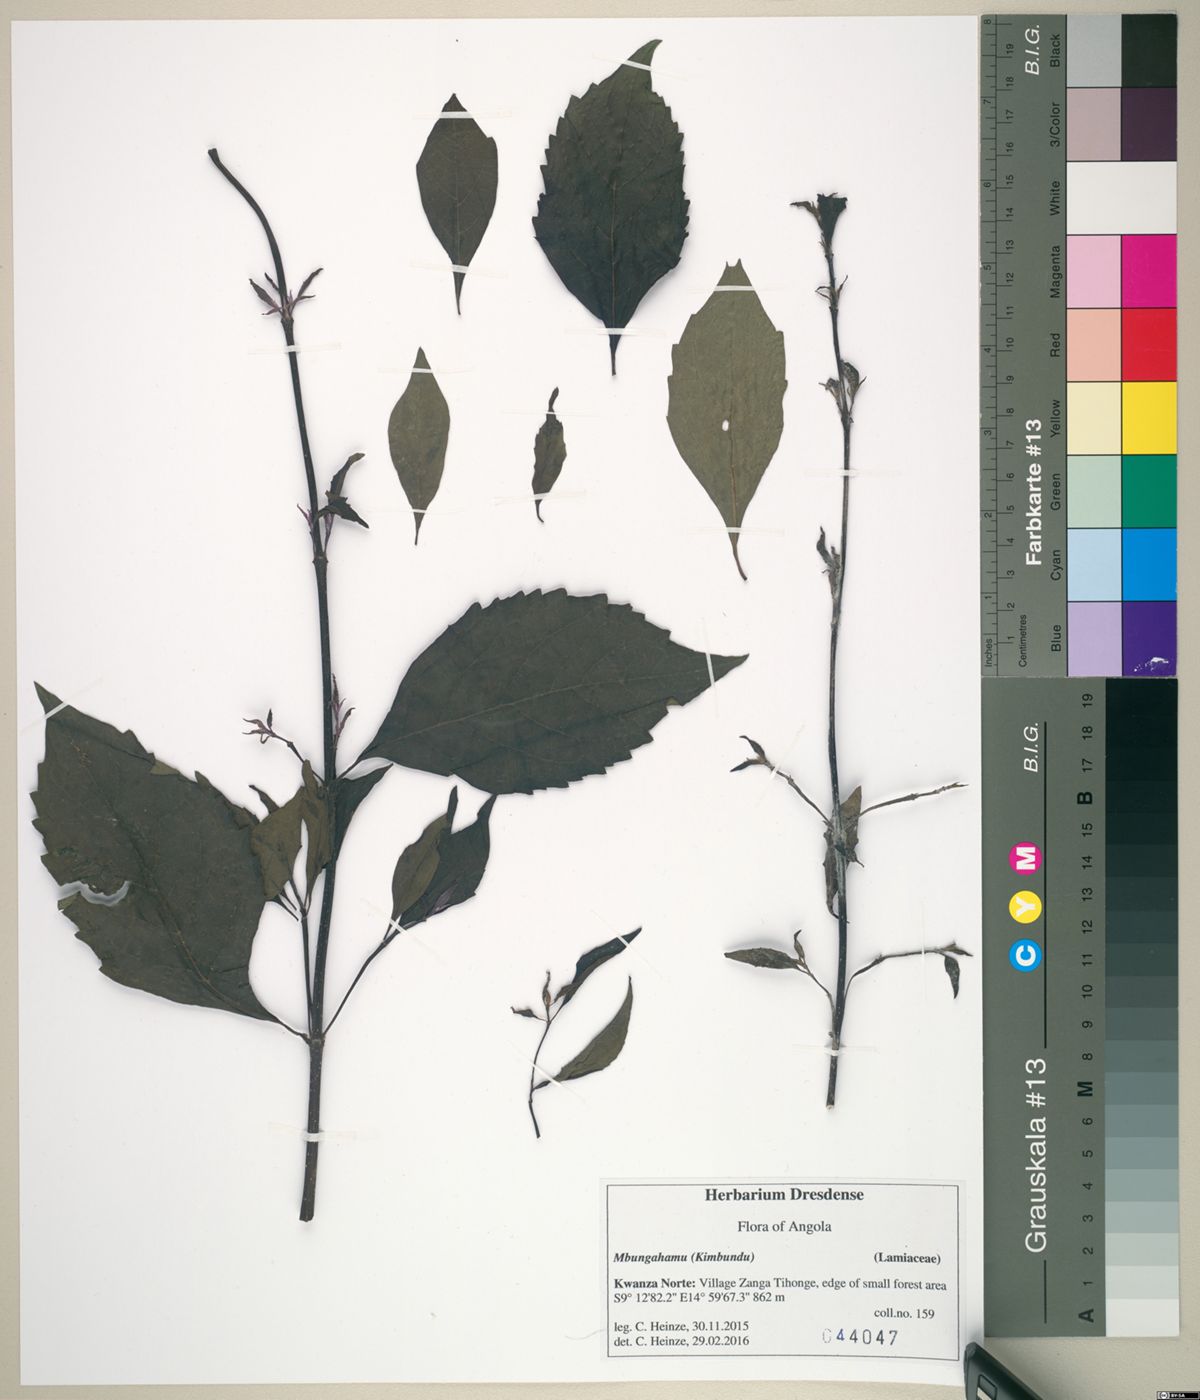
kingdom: Plantae
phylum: Tracheophyta
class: Magnoliopsida
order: Lamiales
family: Lamiaceae
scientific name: Lamiaceae
